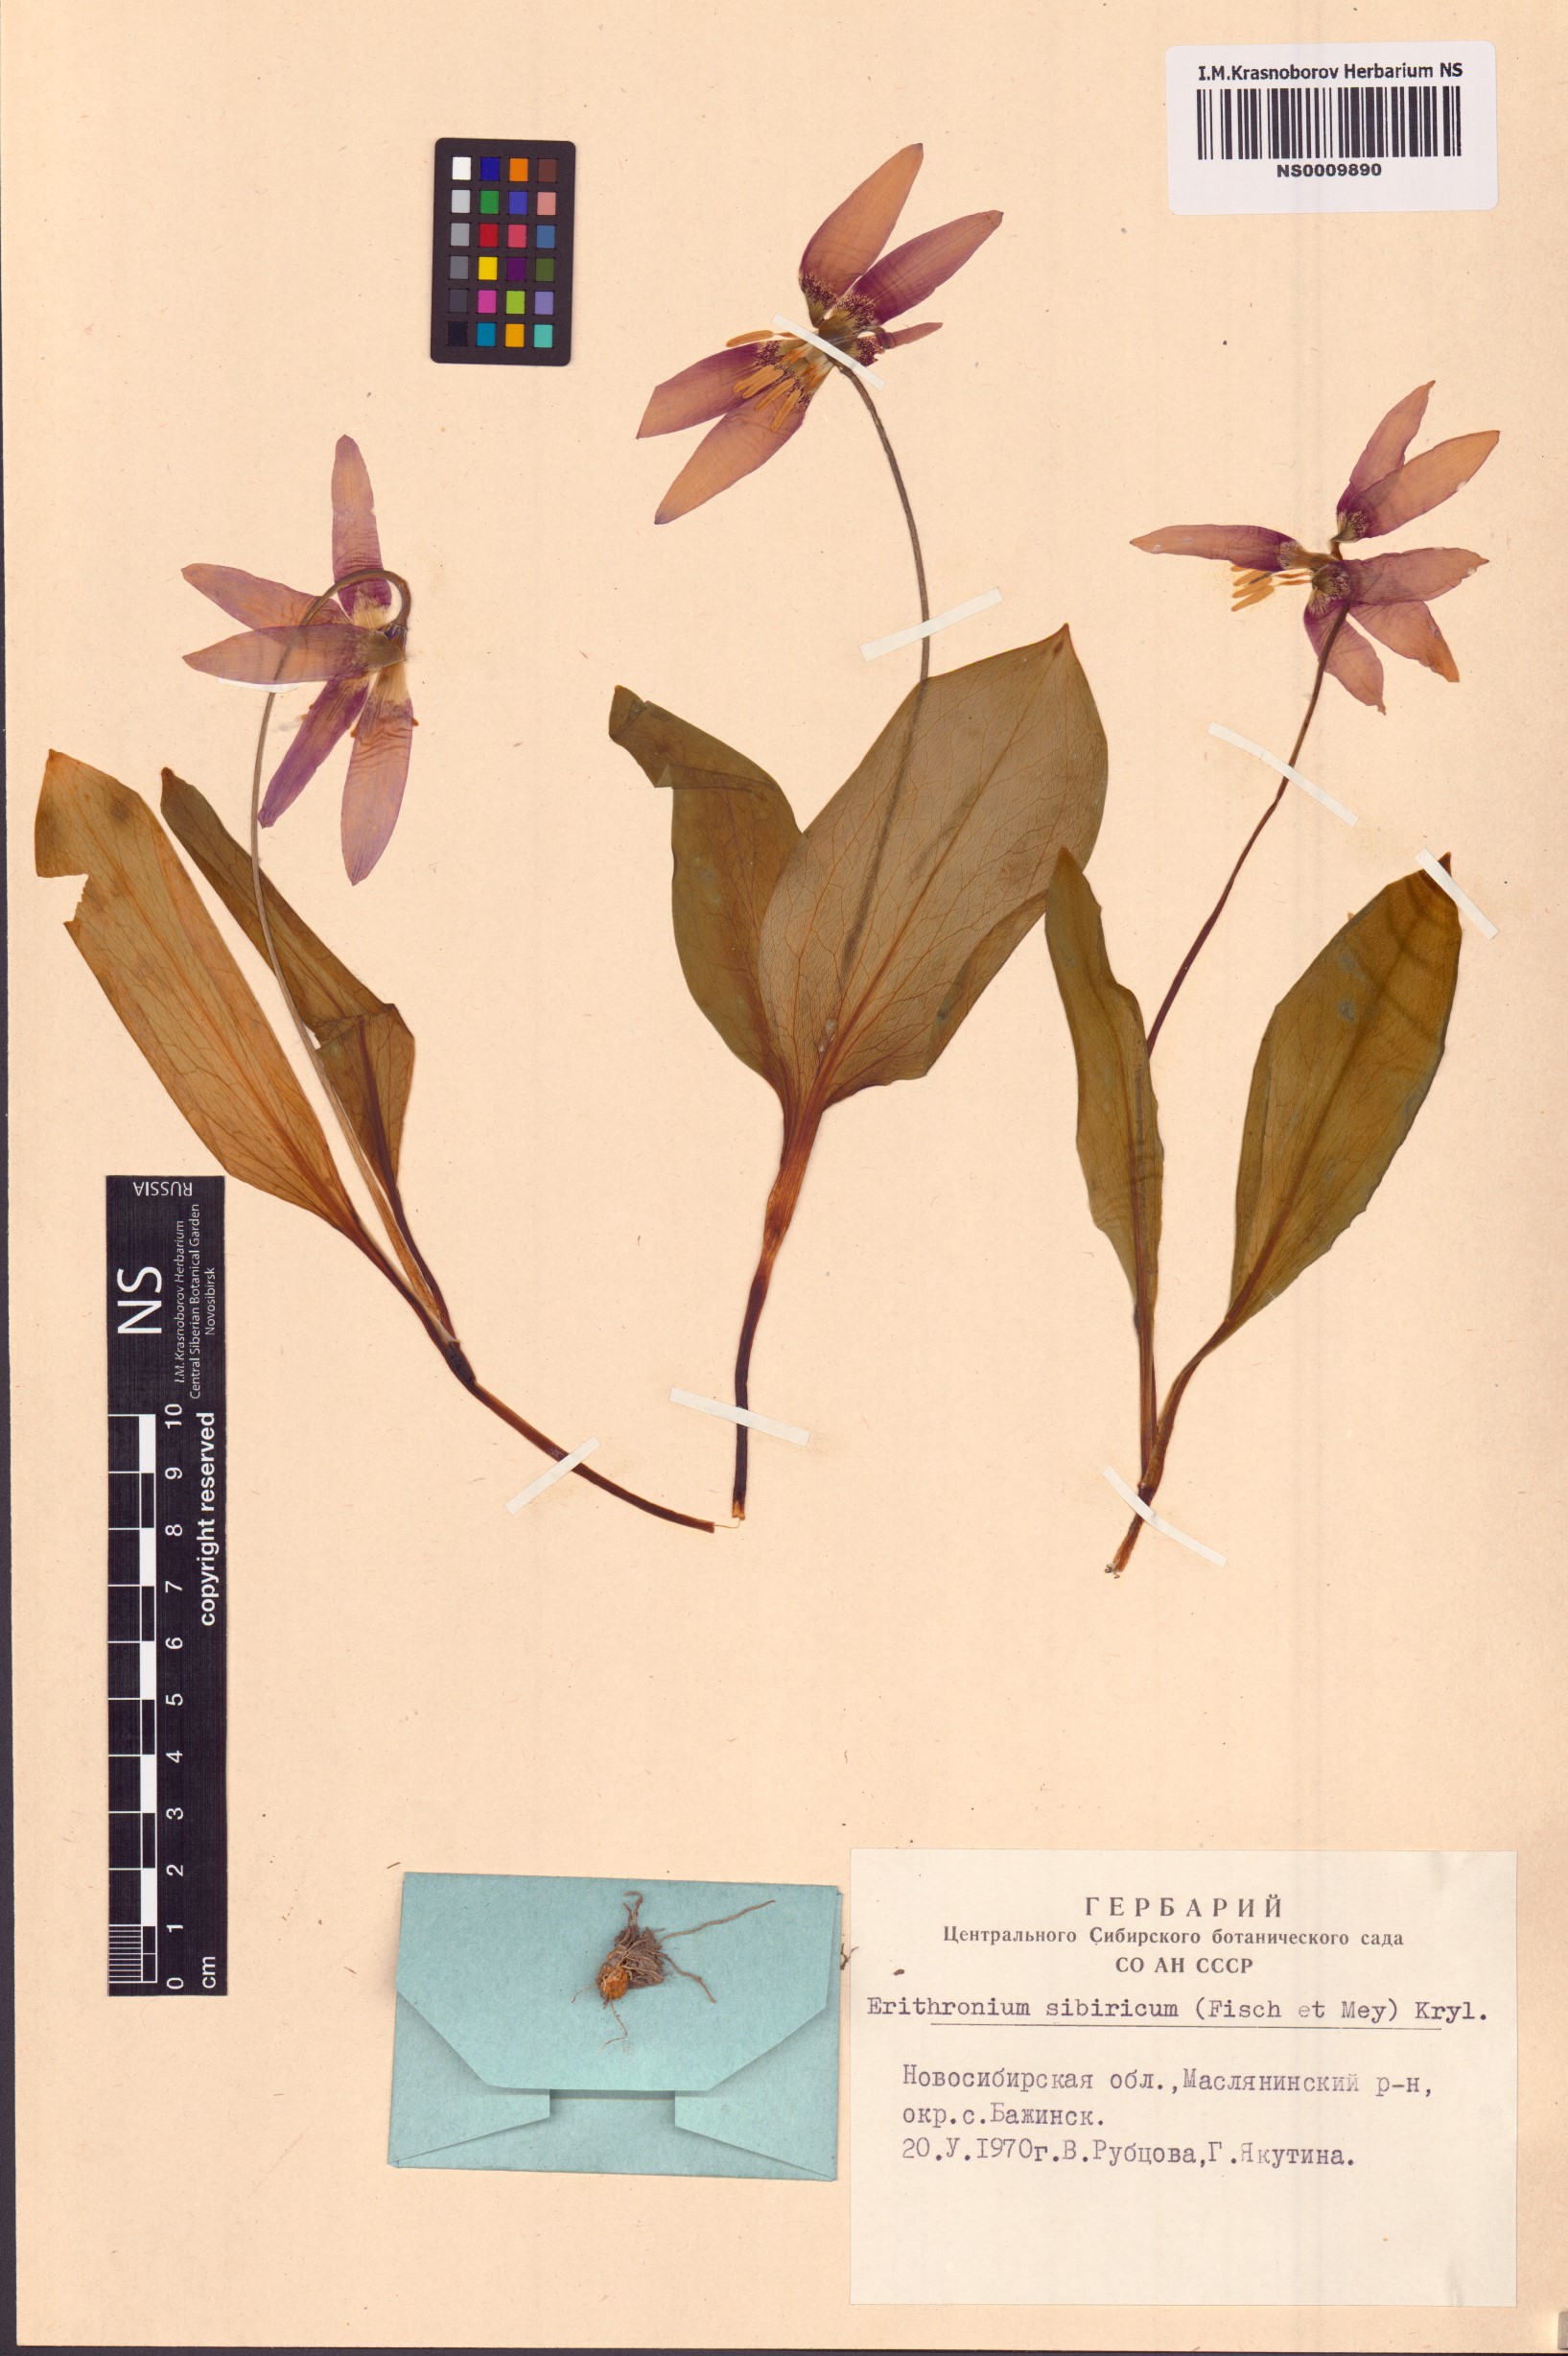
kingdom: Plantae
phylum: Tracheophyta
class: Liliopsida
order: Liliales
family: Liliaceae
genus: Erythronium
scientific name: Erythronium sibiricum
